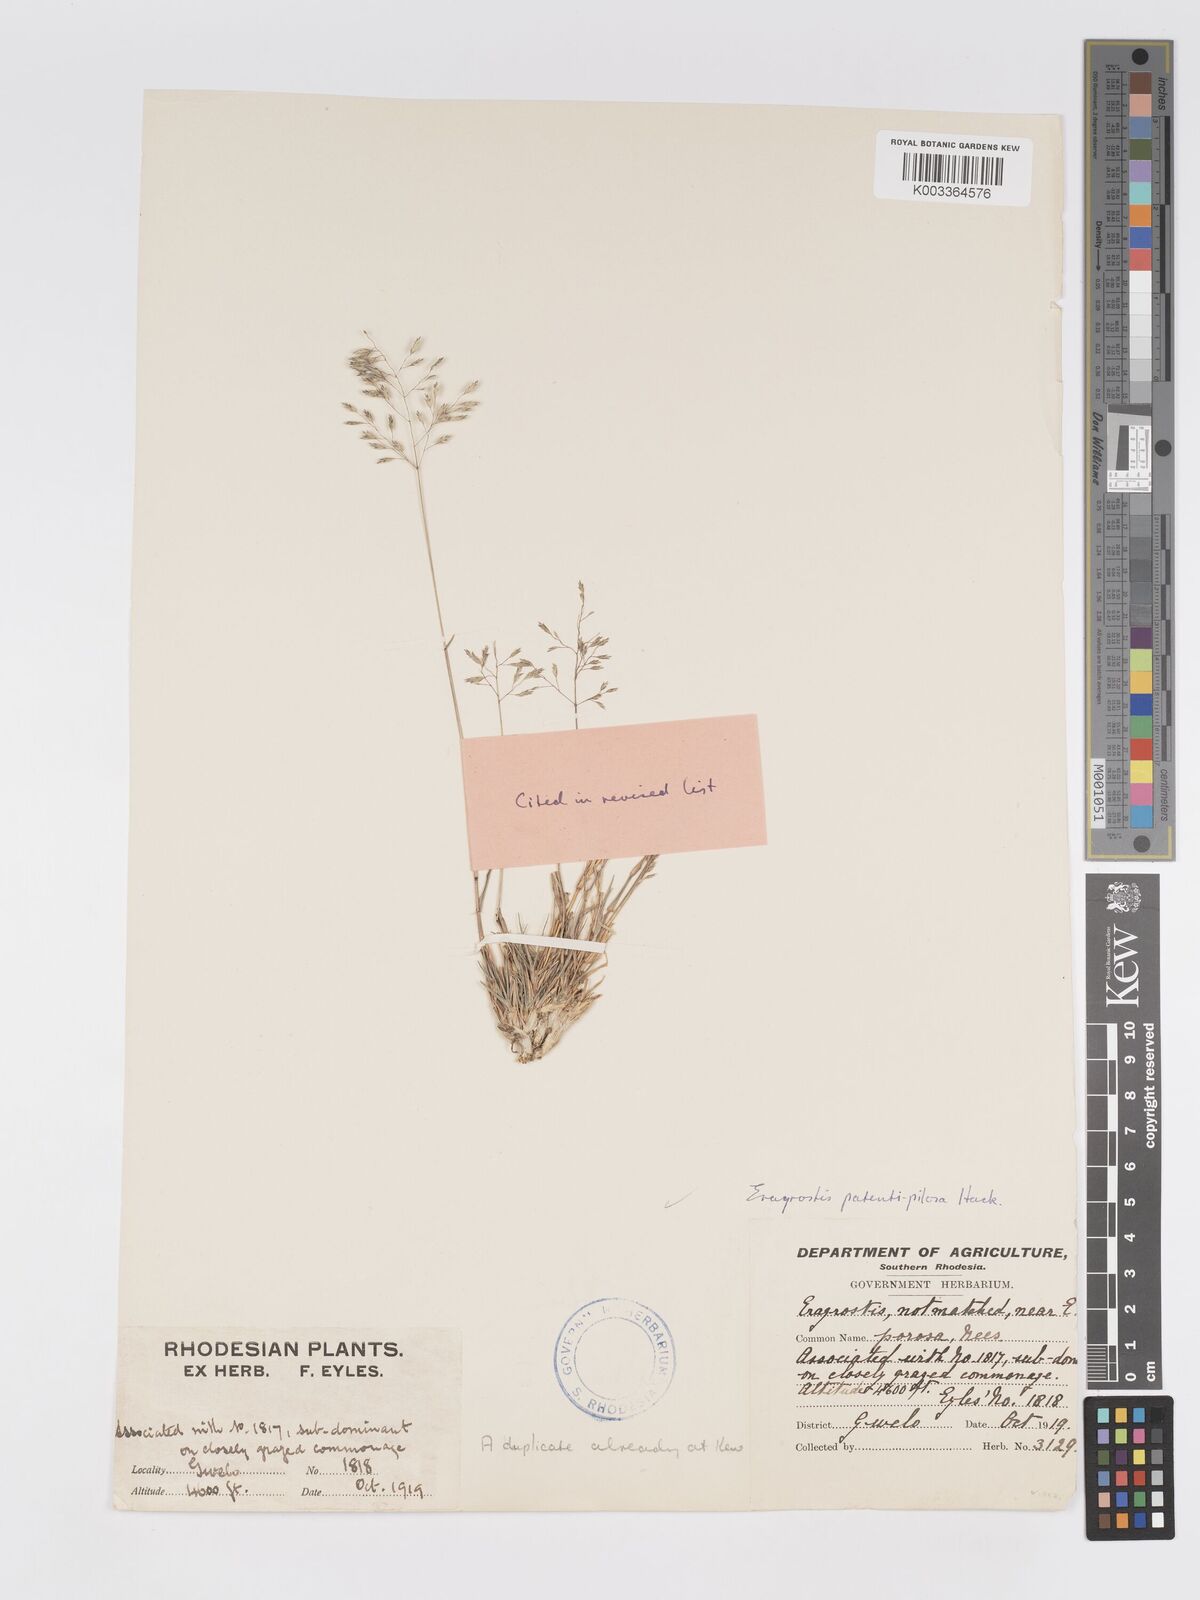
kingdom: Plantae
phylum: Tracheophyta
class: Liliopsida
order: Poales
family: Poaceae
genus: Eragrostis
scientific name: Eragrostis patentipilosa
